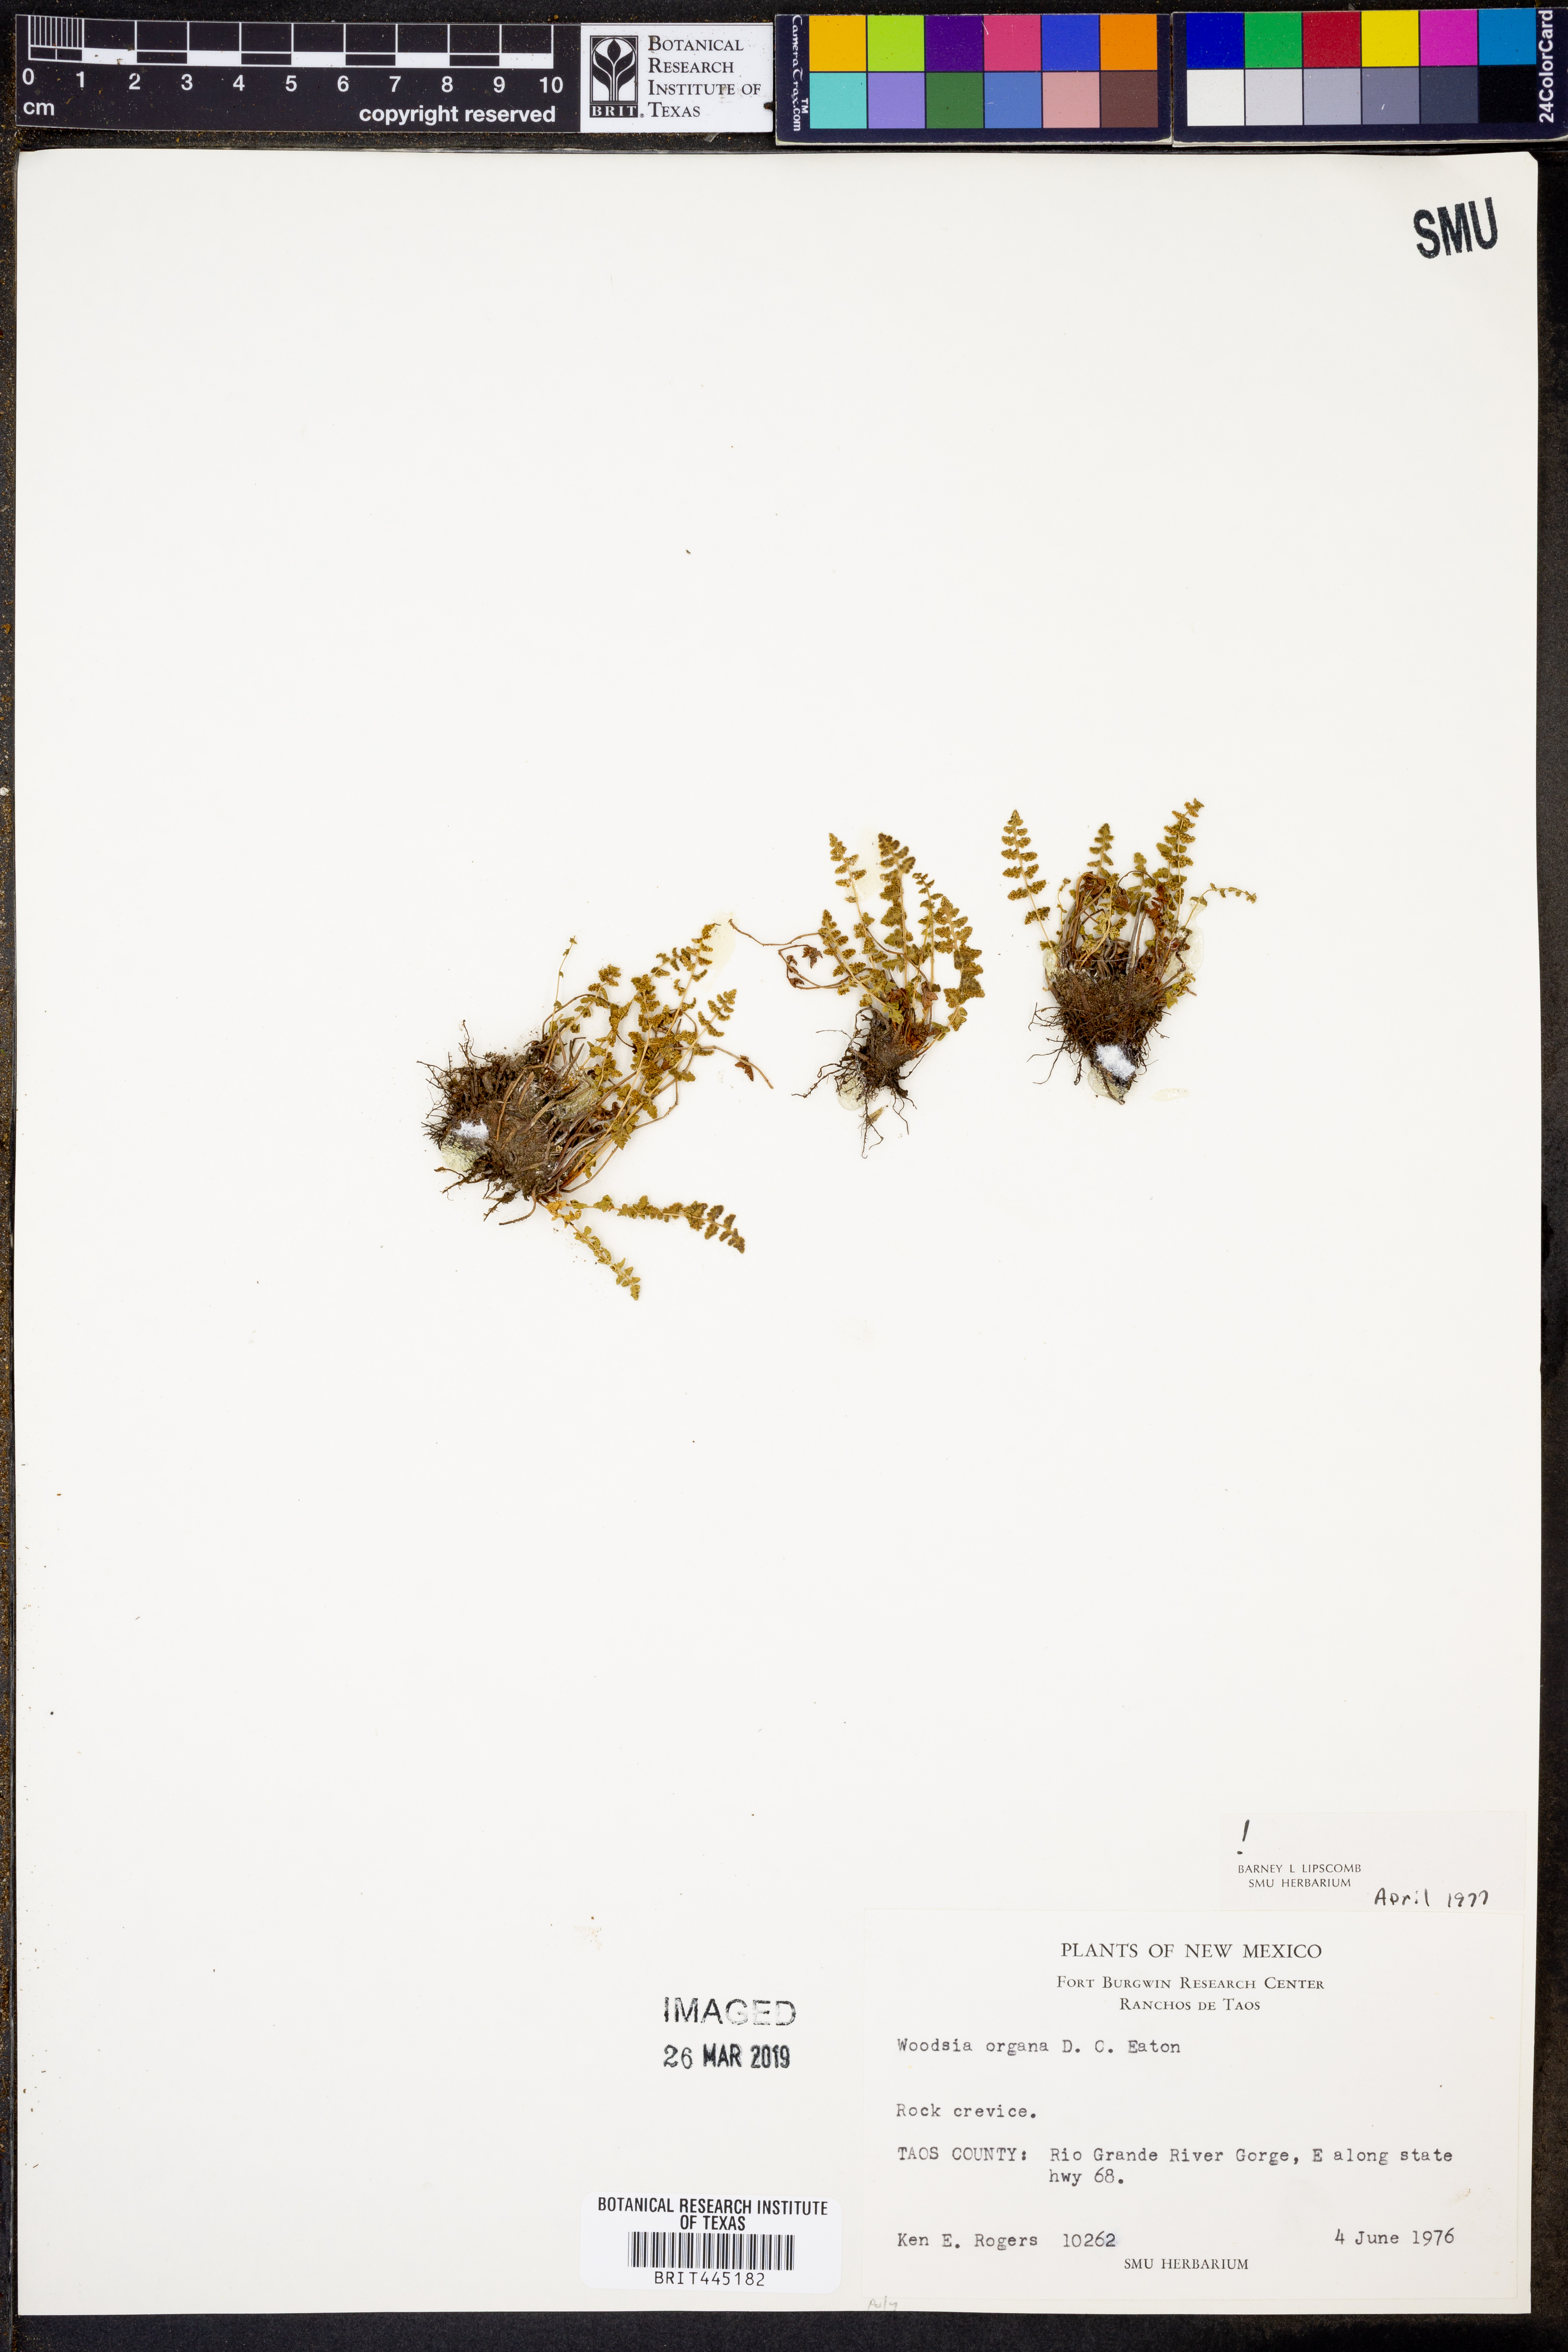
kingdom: Plantae
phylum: Tracheophyta
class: Polypodiopsida
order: Polypodiales
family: Woodsiaceae
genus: Physematium
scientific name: Physematium oreganum
